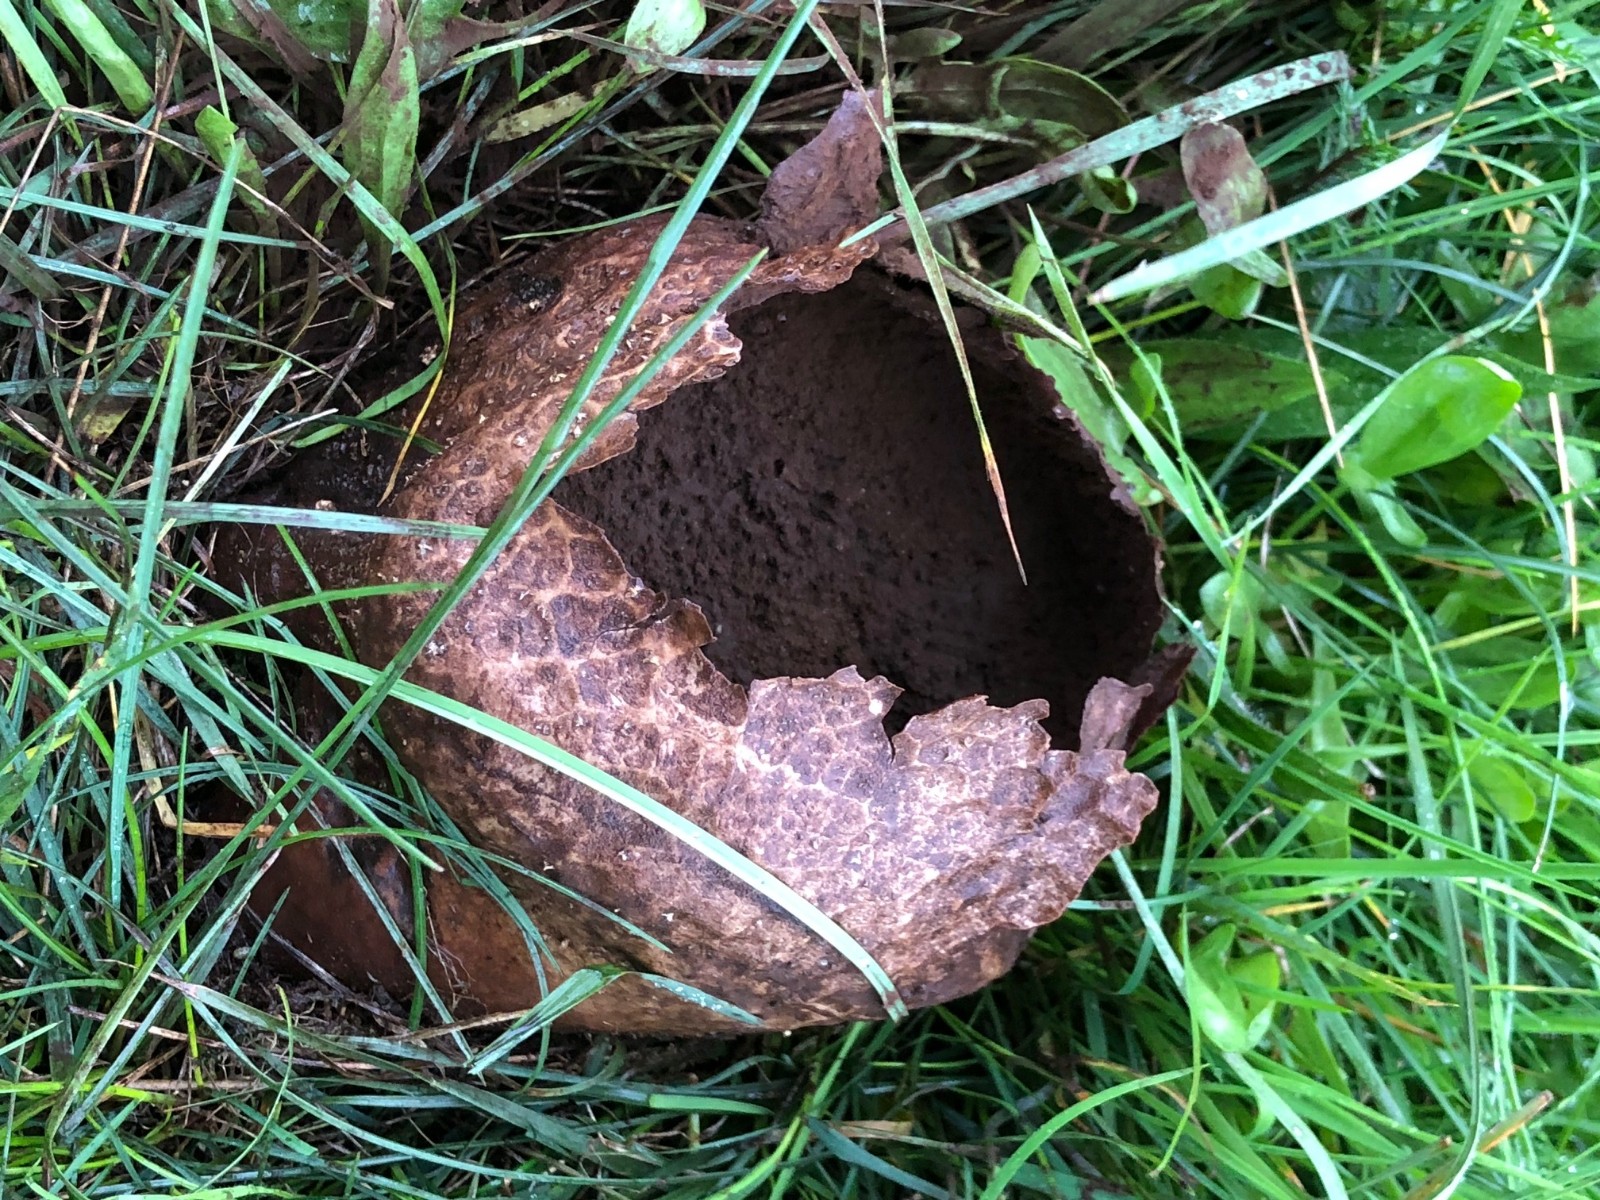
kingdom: Fungi
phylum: Basidiomycota
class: Agaricomycetes
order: Agaricales
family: Lycoperdaceae
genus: Bovistella
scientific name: Bovistella utriformis
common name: skællet støvbold
